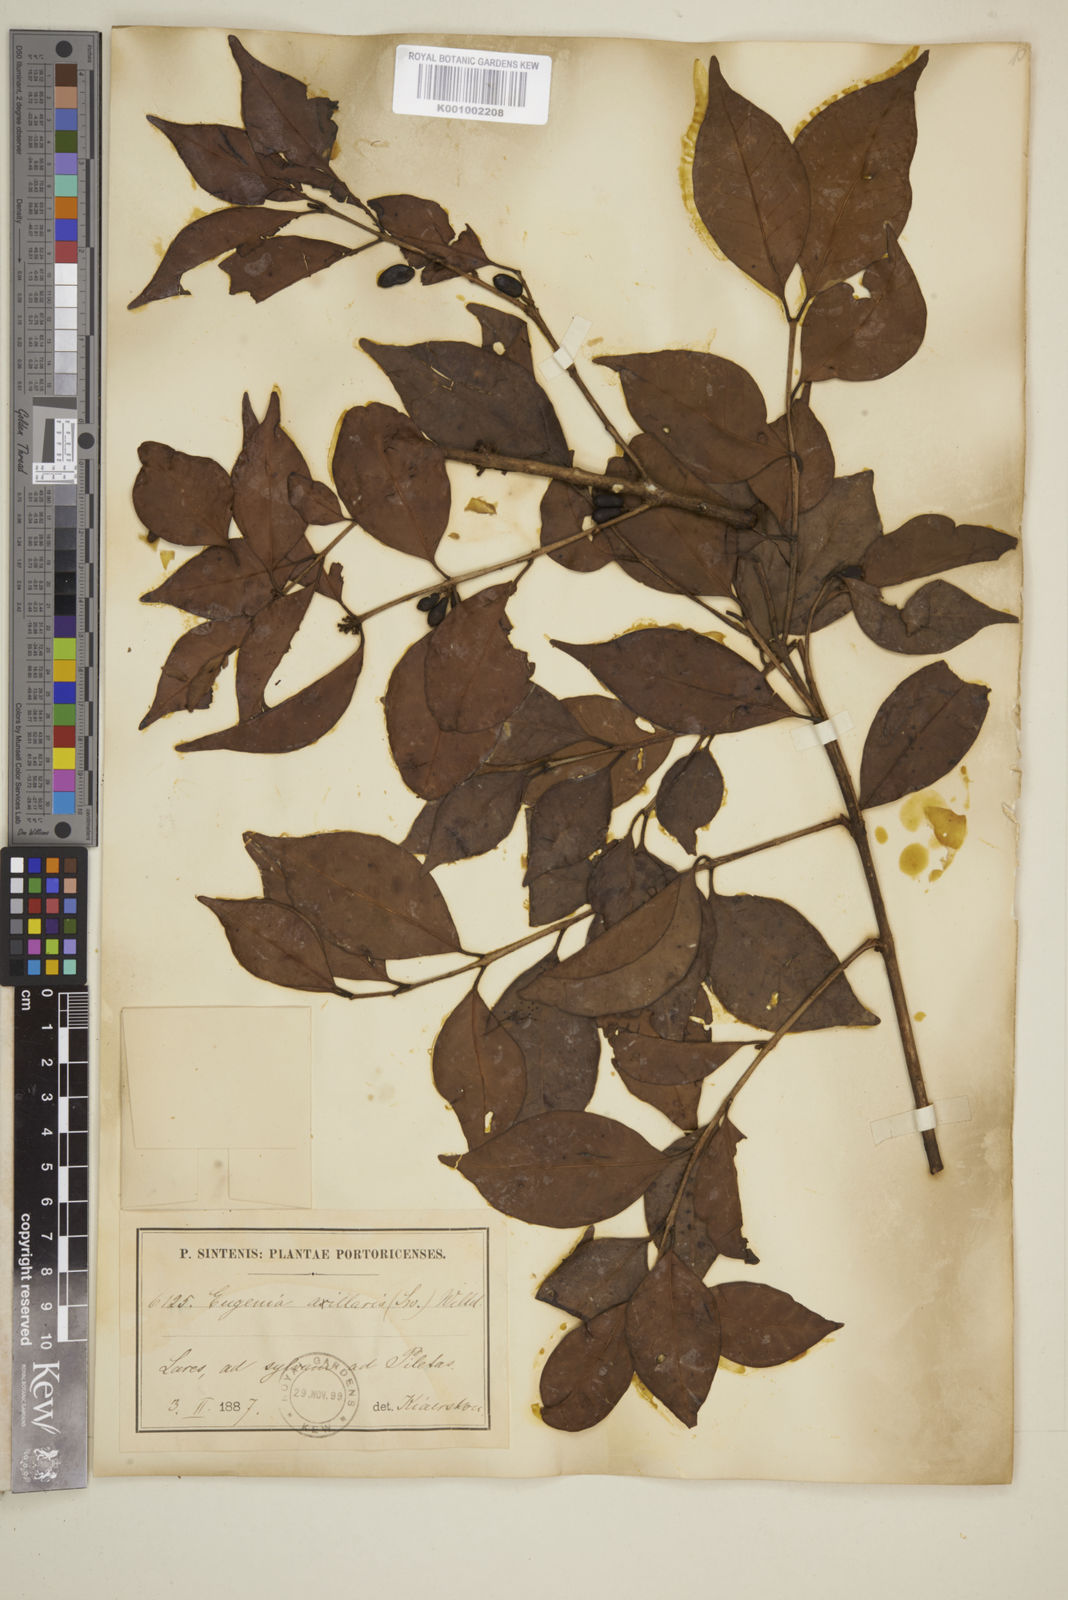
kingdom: Plantae
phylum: Tracheophyta
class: Magnoliopsida
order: Myrtales
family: Myrtaceae
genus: Eugenia
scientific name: Eugenia axillaris
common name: Choaky berry
